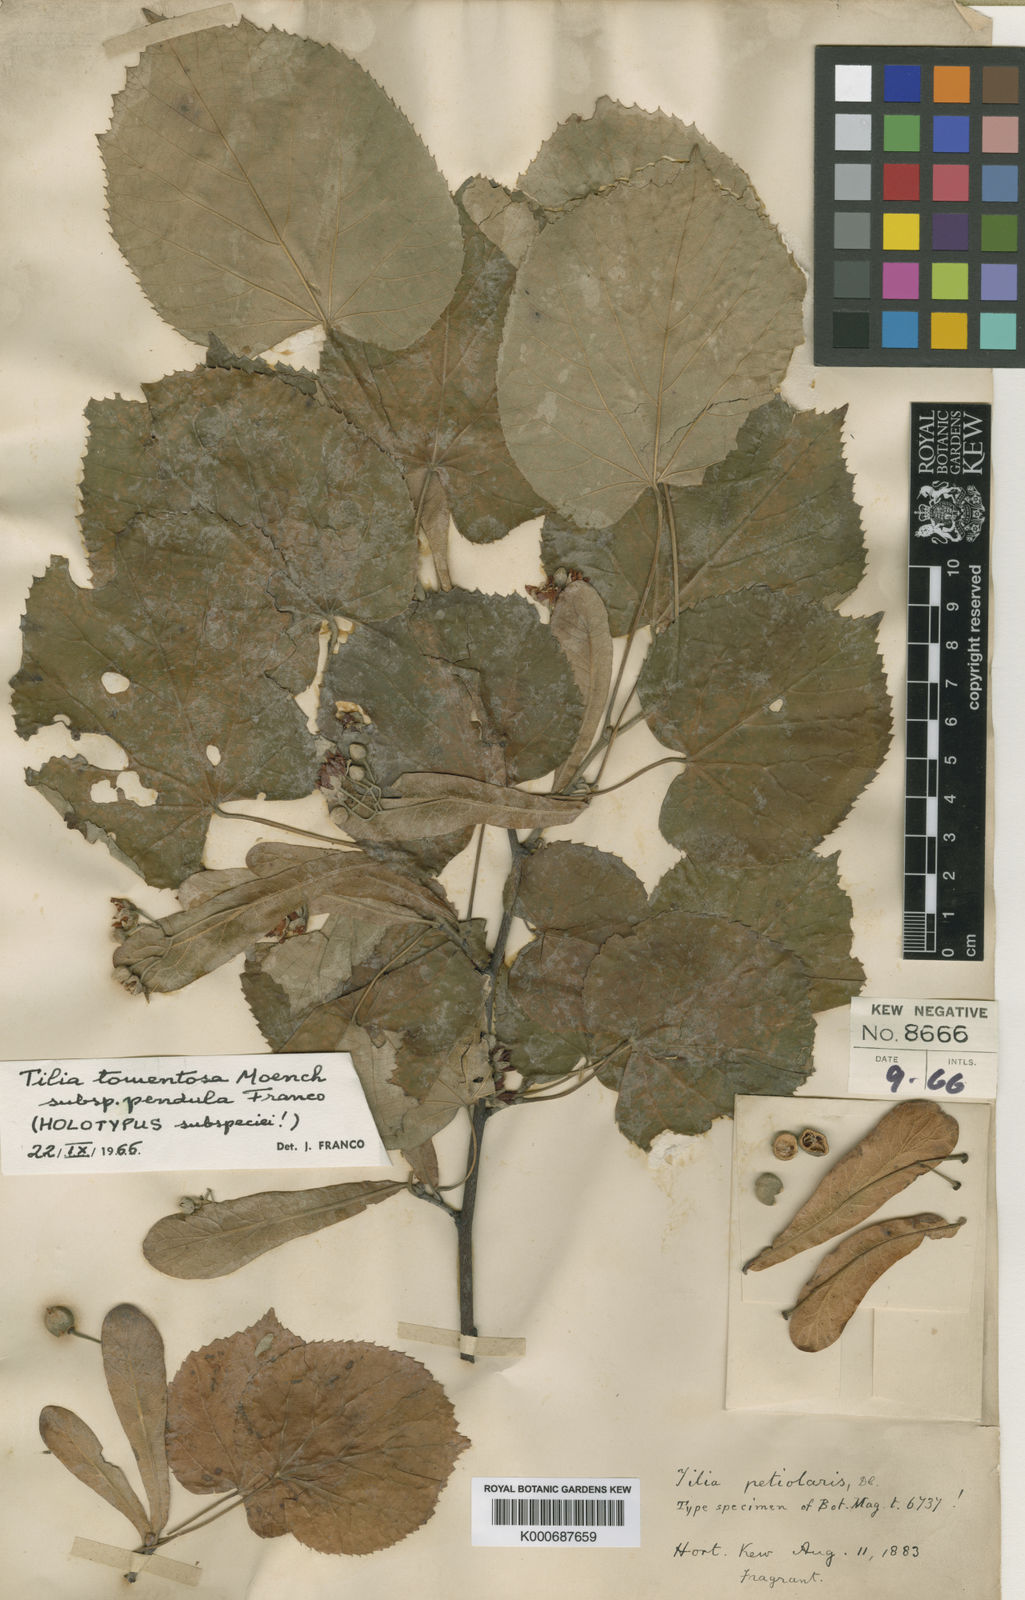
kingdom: Plantae
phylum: Tracheophyta
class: Magnoliopsida
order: Malvales
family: Malvaceae
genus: Tilia
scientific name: Tilia tomentosa
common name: Silver lime
